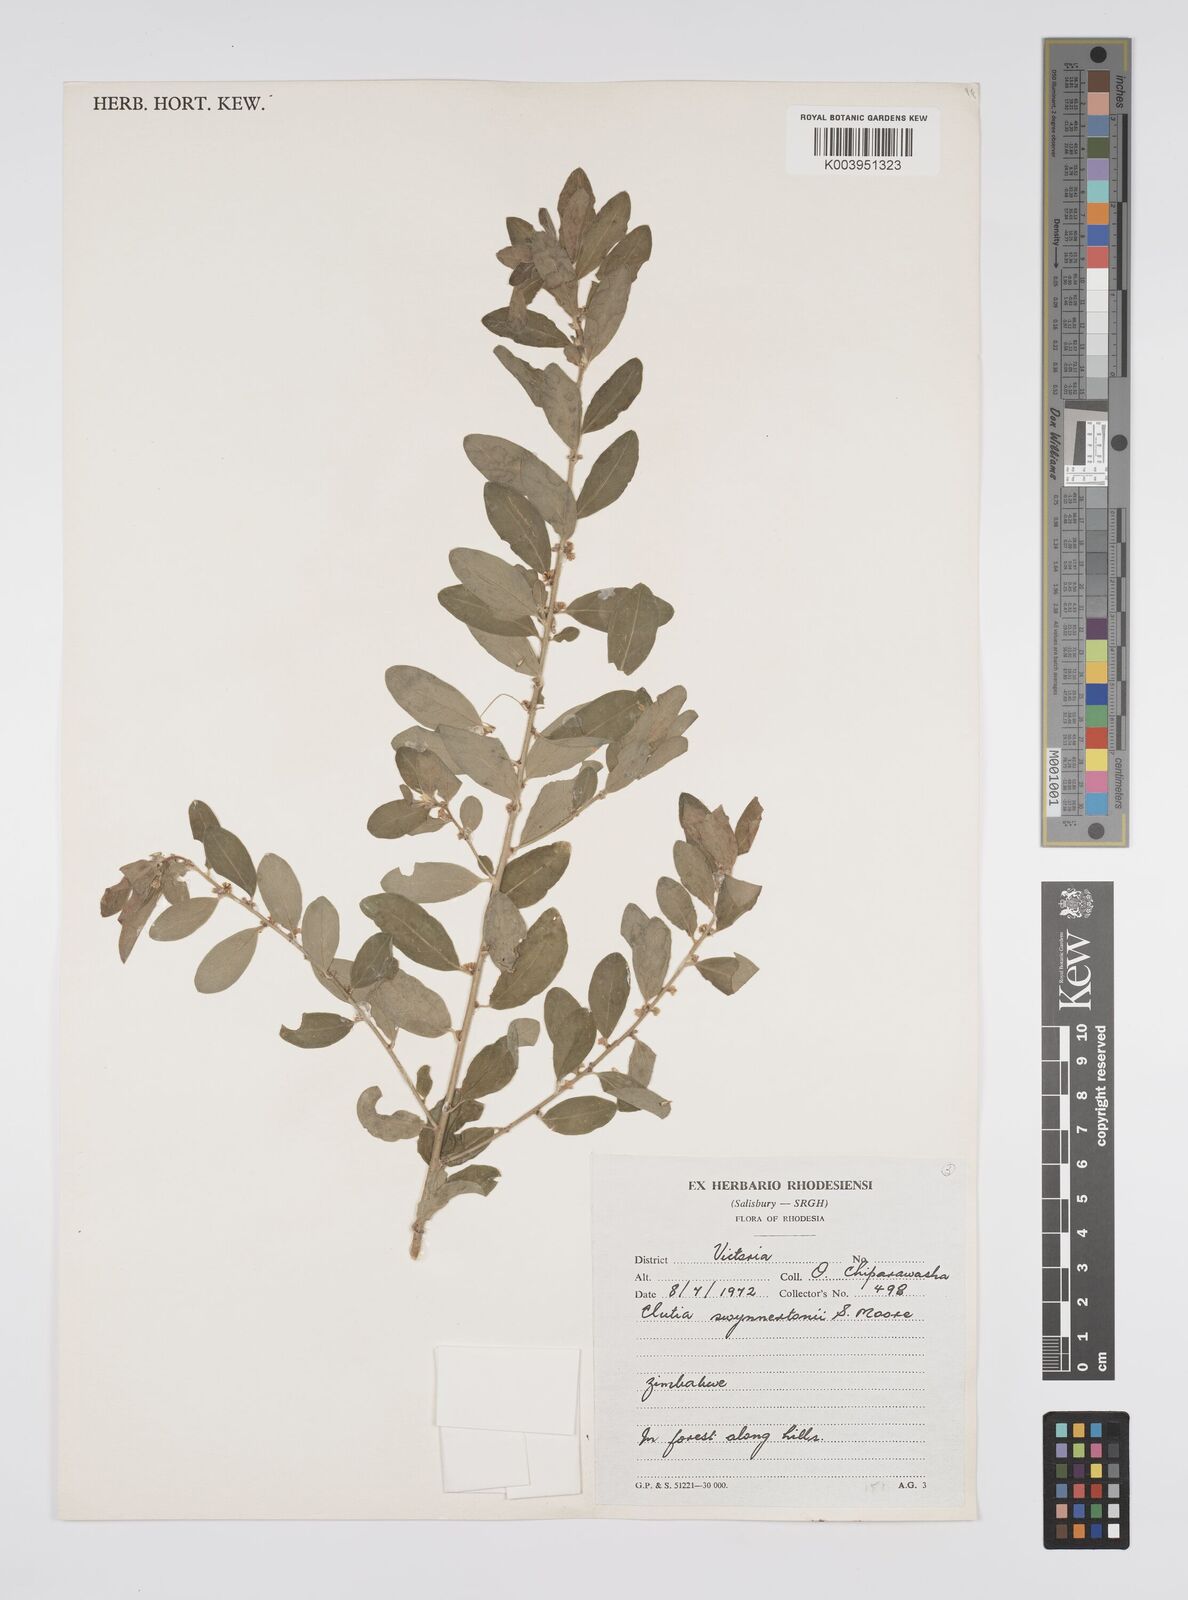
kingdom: Plantae
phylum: Tracheophyta
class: Magnoliopsida
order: Malpighiales
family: Peraceae
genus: Clutia
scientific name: Clutia swynnertonii
